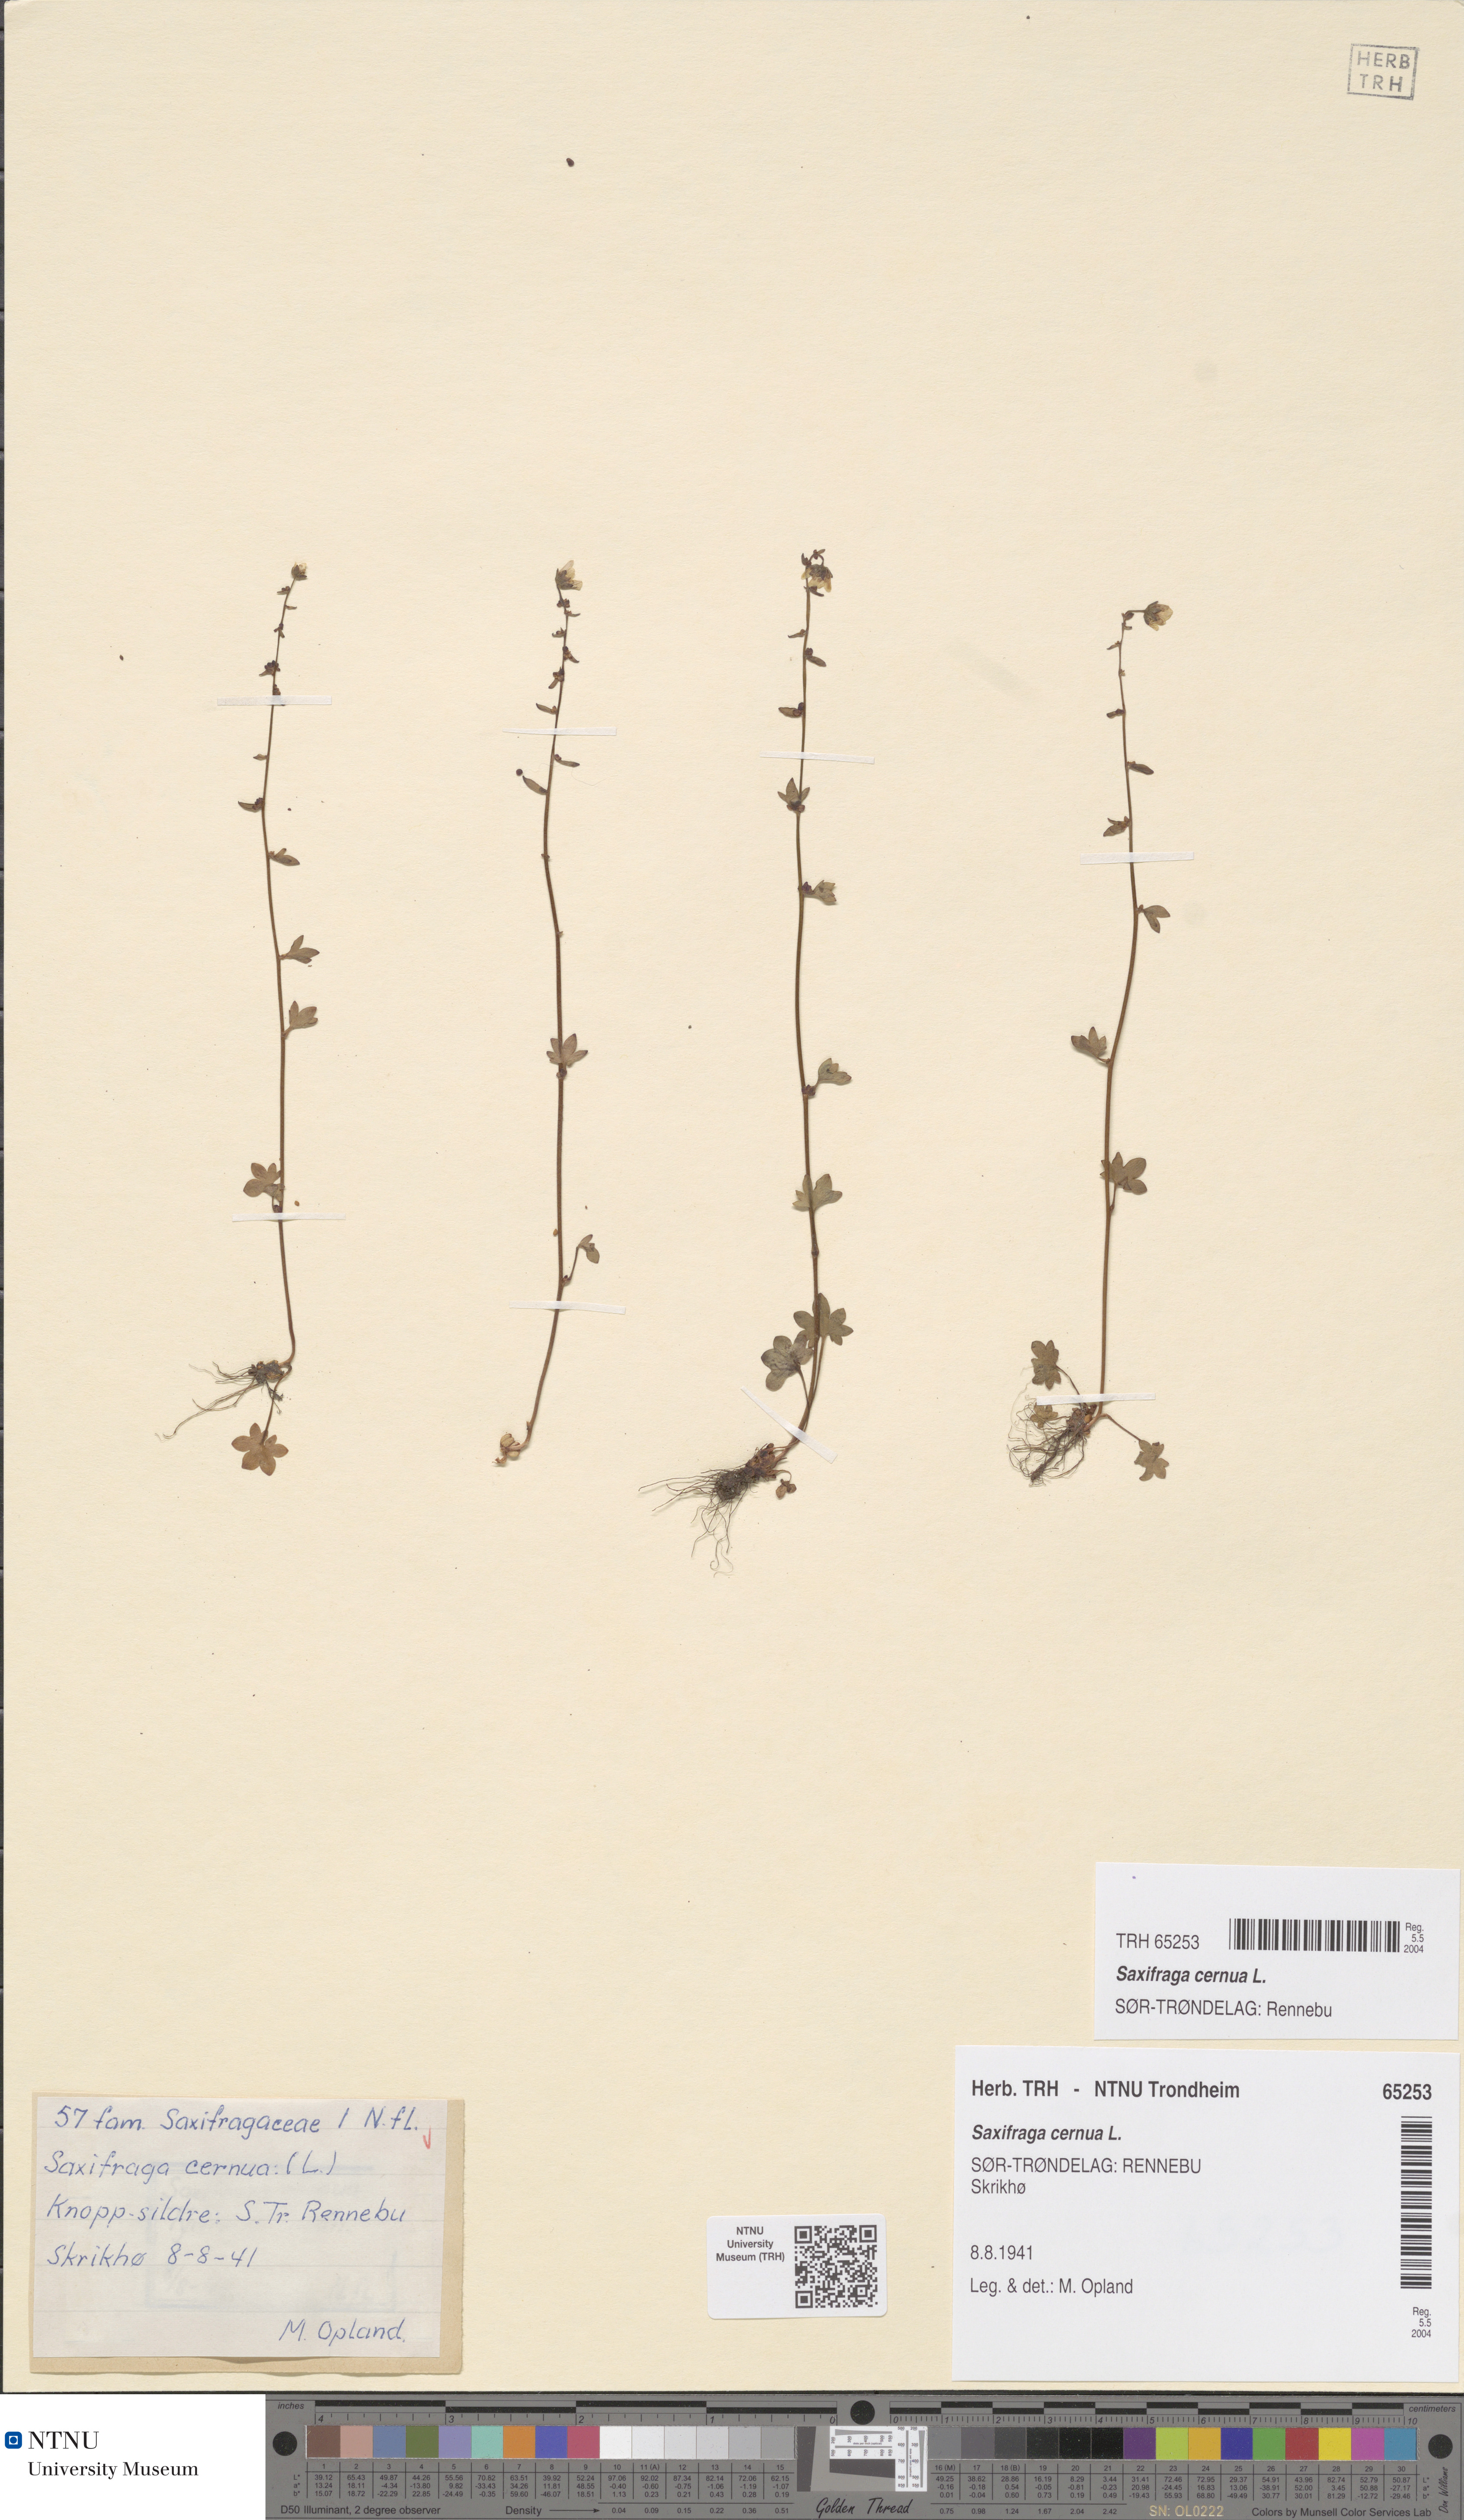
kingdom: Plantae
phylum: Tracheophyta
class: Magnoliopsida
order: Saxifragales
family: Saxifragaceae
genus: Saxifraga
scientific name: Saxifraga cernua
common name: Drooping saxifrage
